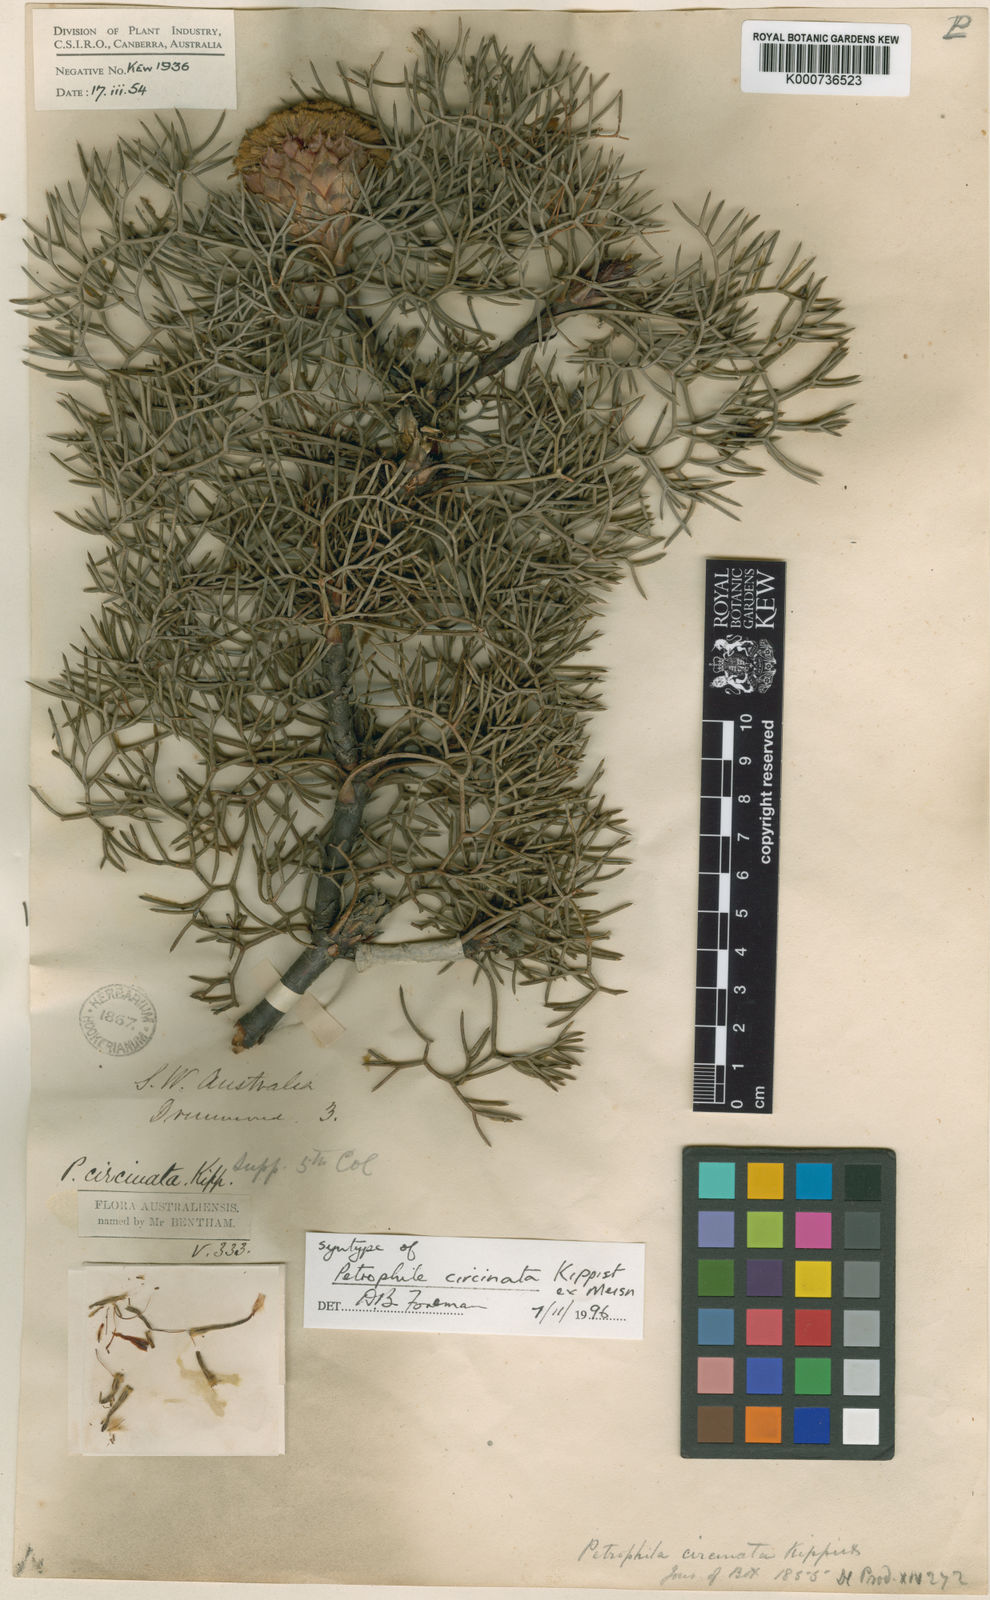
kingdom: Plantae
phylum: Tracheophyta
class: Magnoliopsida
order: Proteales
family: Proteaceae
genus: Petrophile
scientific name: Petrophile
